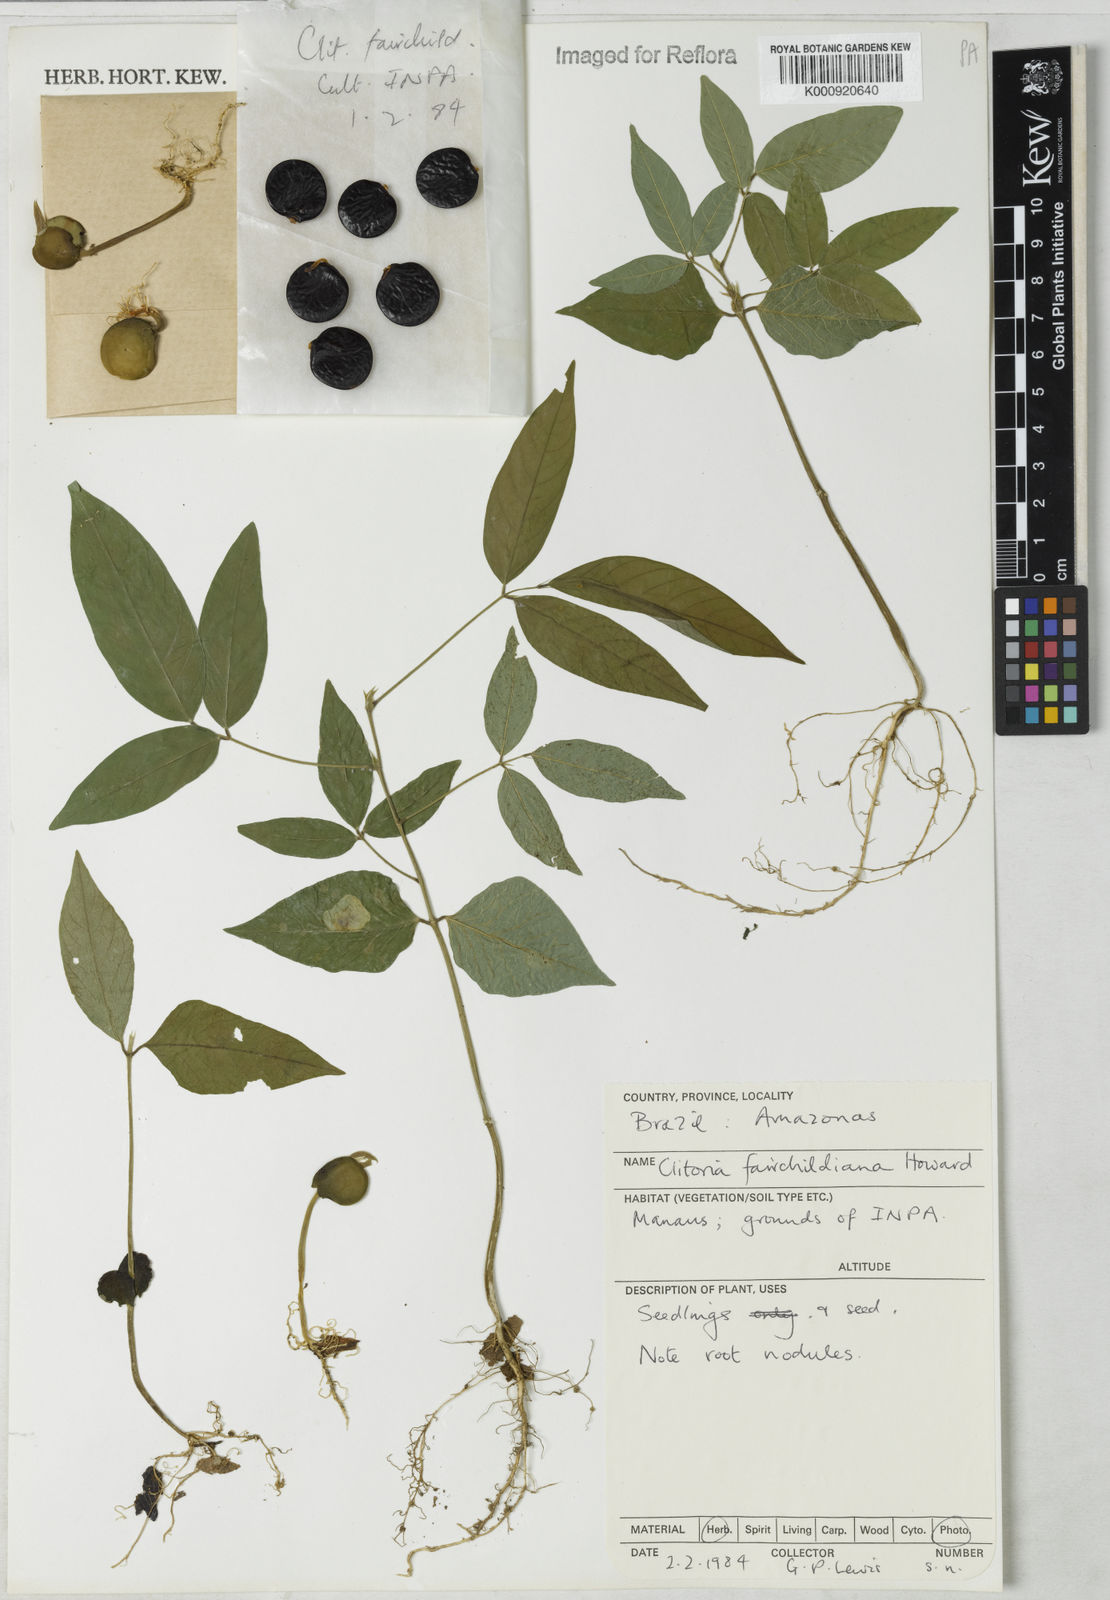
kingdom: Plantae
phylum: Tracheophyta
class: Magnoliopsida
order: Fabales
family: Fabaceae
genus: Clitoria
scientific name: Clitoria fairchildiana
